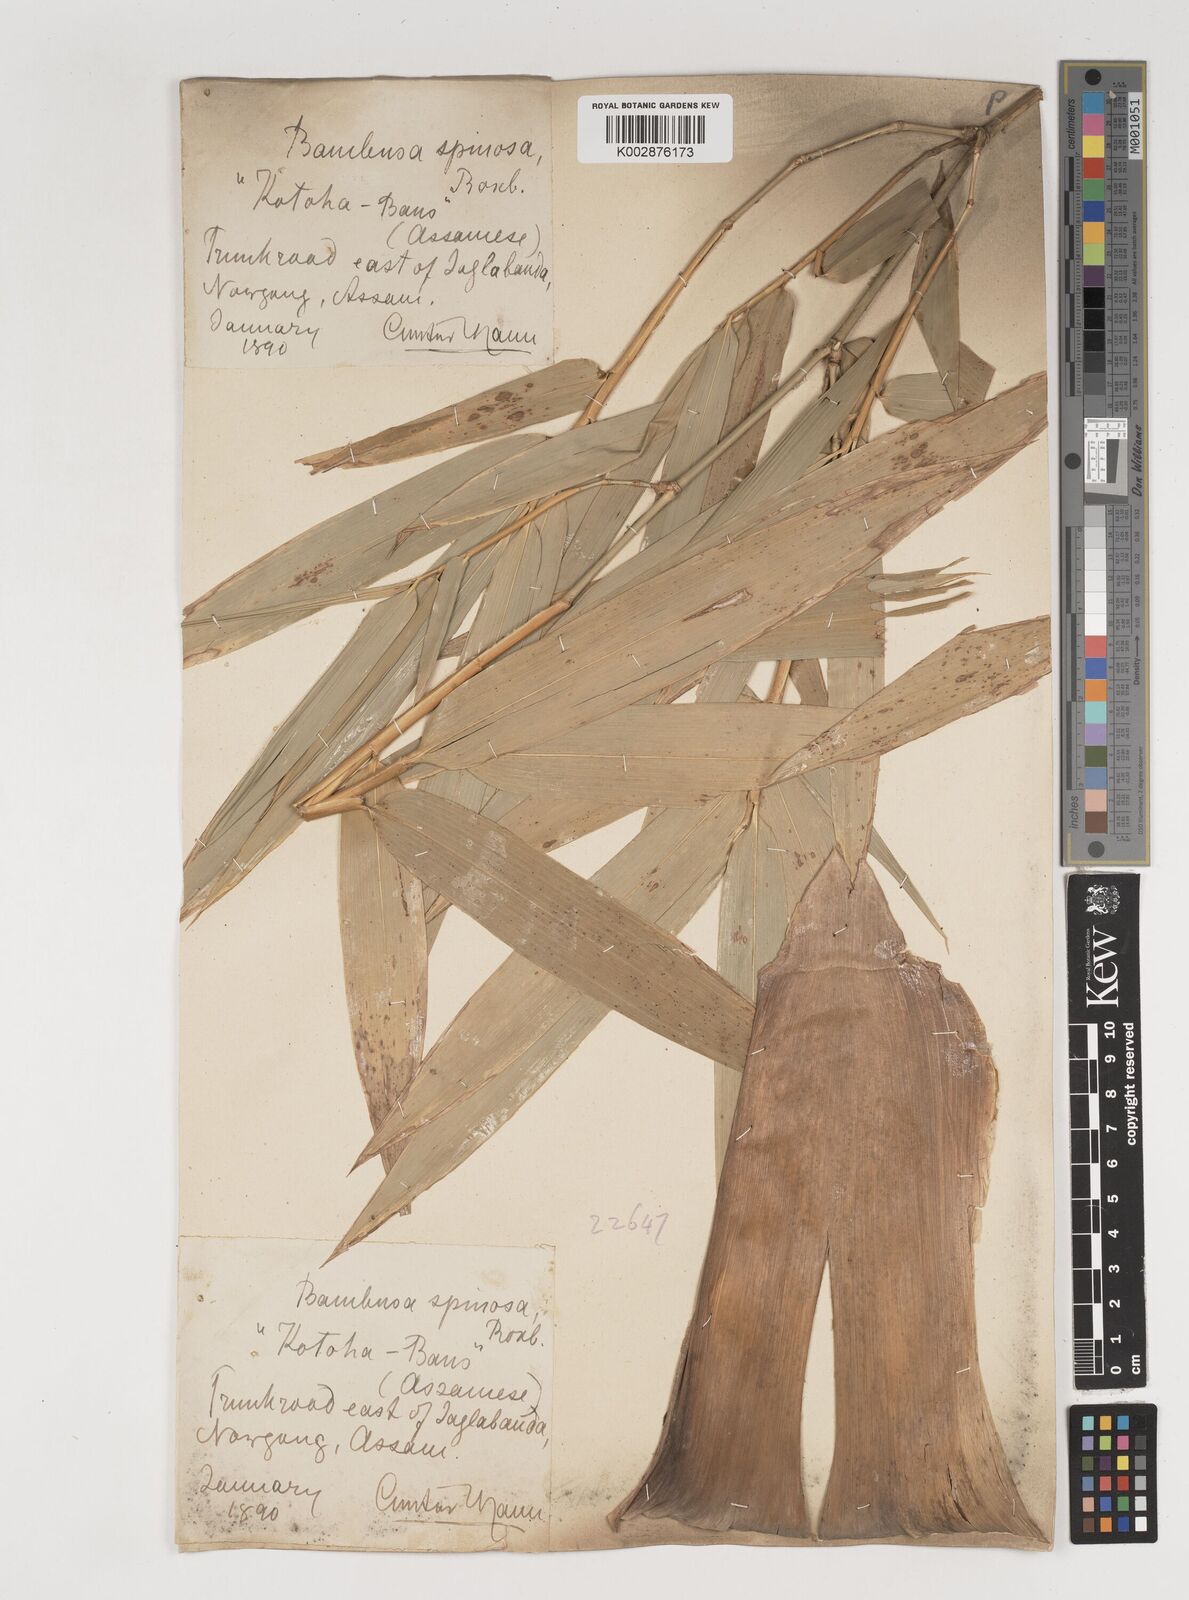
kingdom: Plantae
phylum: Tracheophyta
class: Liliopsida
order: Poales
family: Poaceae
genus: Bambusa
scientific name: Bambusa bambos
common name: Indian thorny bamboo
